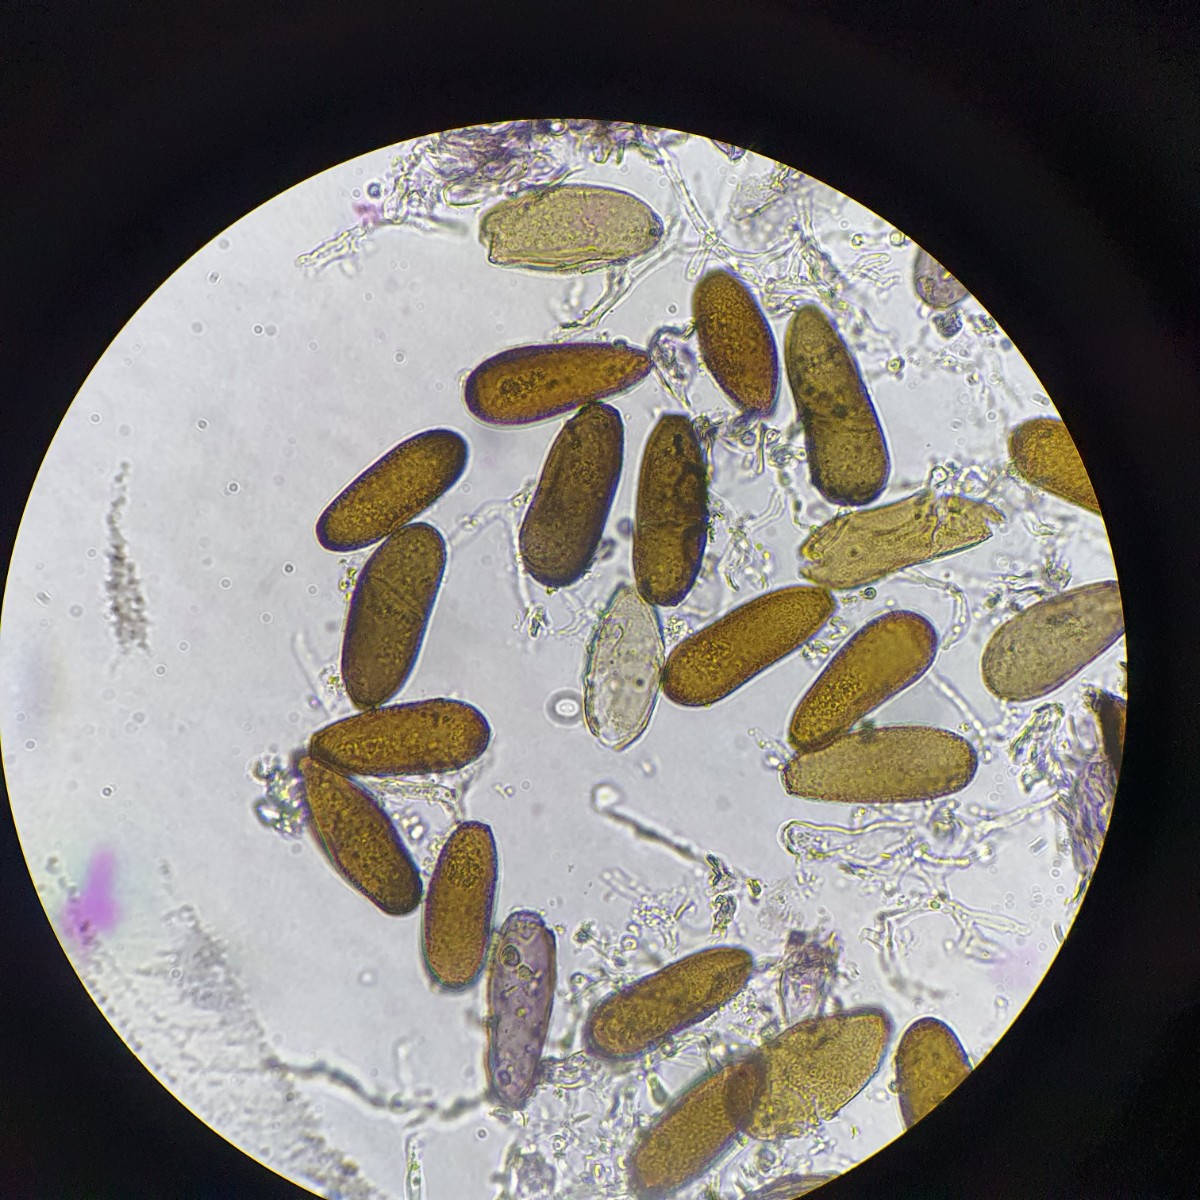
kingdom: Fungi
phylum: Ascomycota
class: Dothideomycetes
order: Botryosphaeriales
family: Botryosphaeriaceae
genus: Sphaeropsis
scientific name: Sphaeropsis sapinea
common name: Sphaeropsis blight
